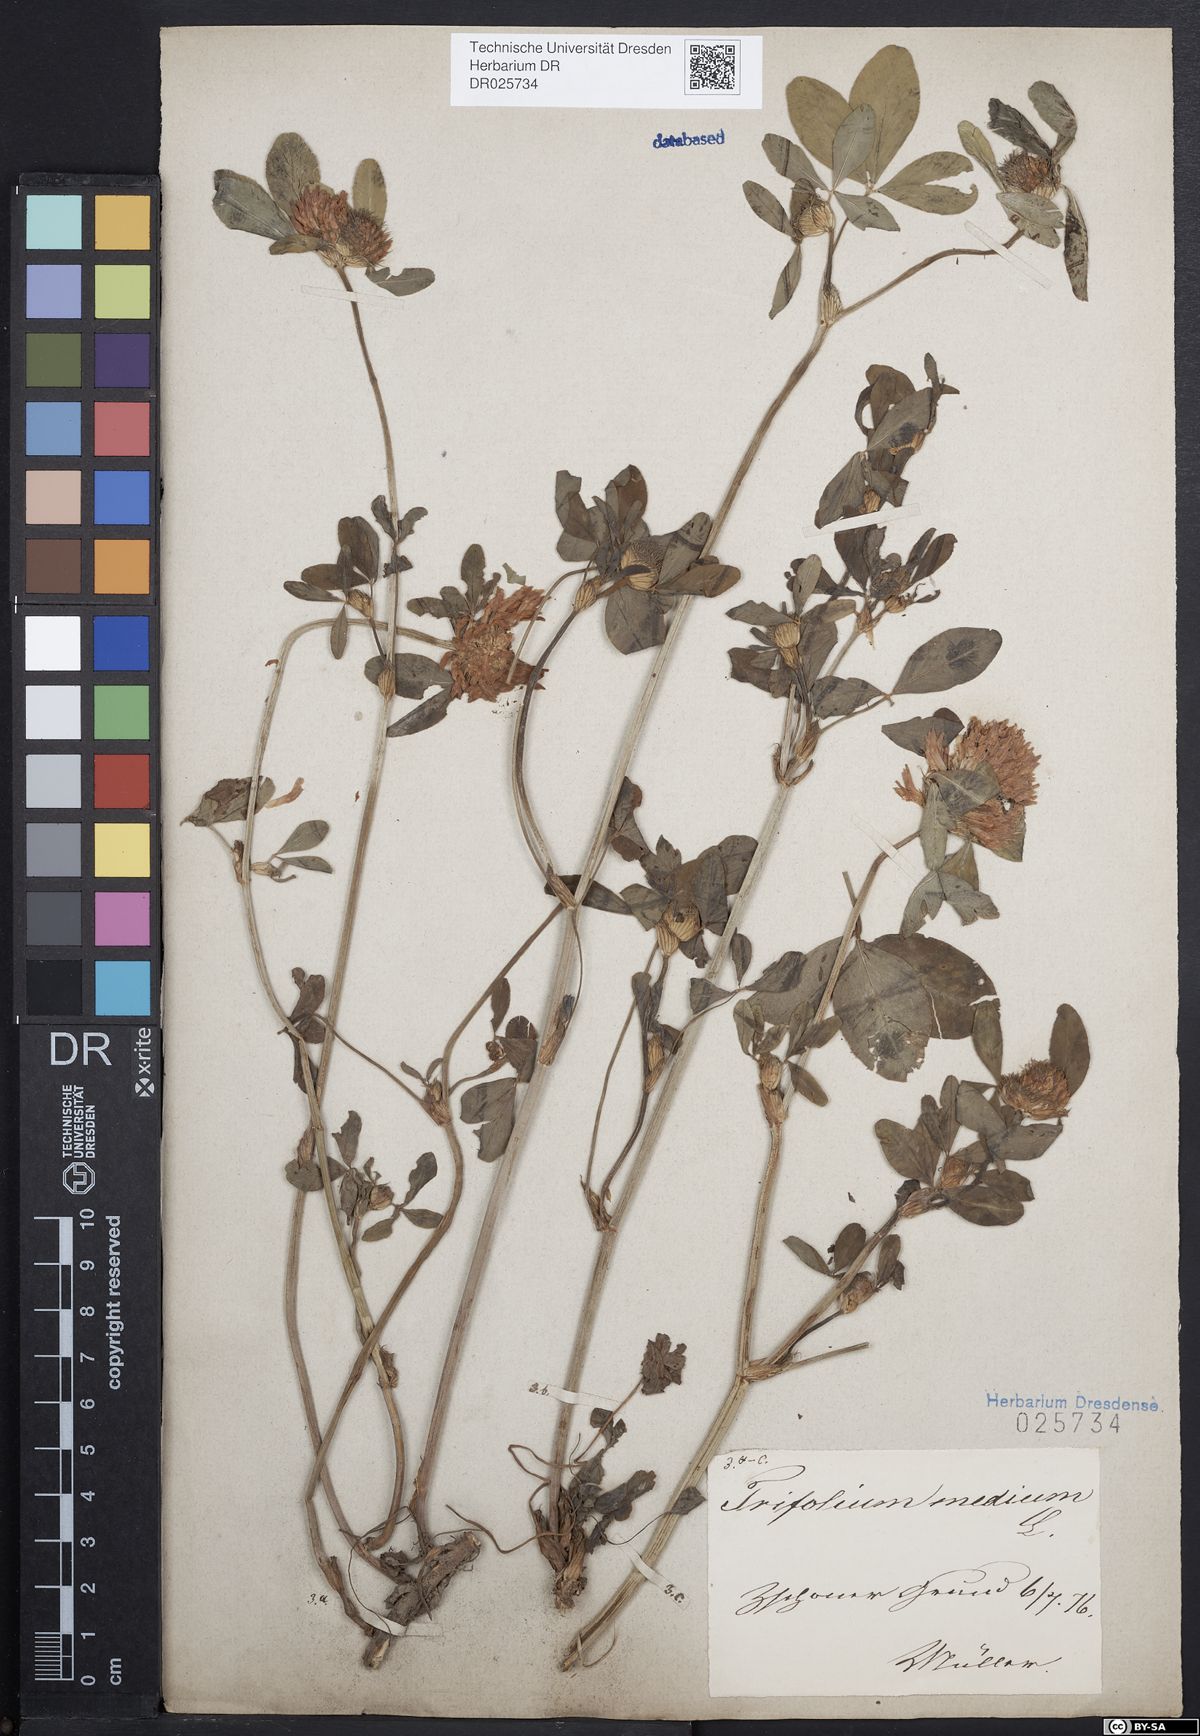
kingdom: Plantae
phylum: Tracheophyta
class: Magnoliopsida
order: Fabales
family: Fabaceae
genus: Trifolium
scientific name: Trifolium medium
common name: Zigzag clover
